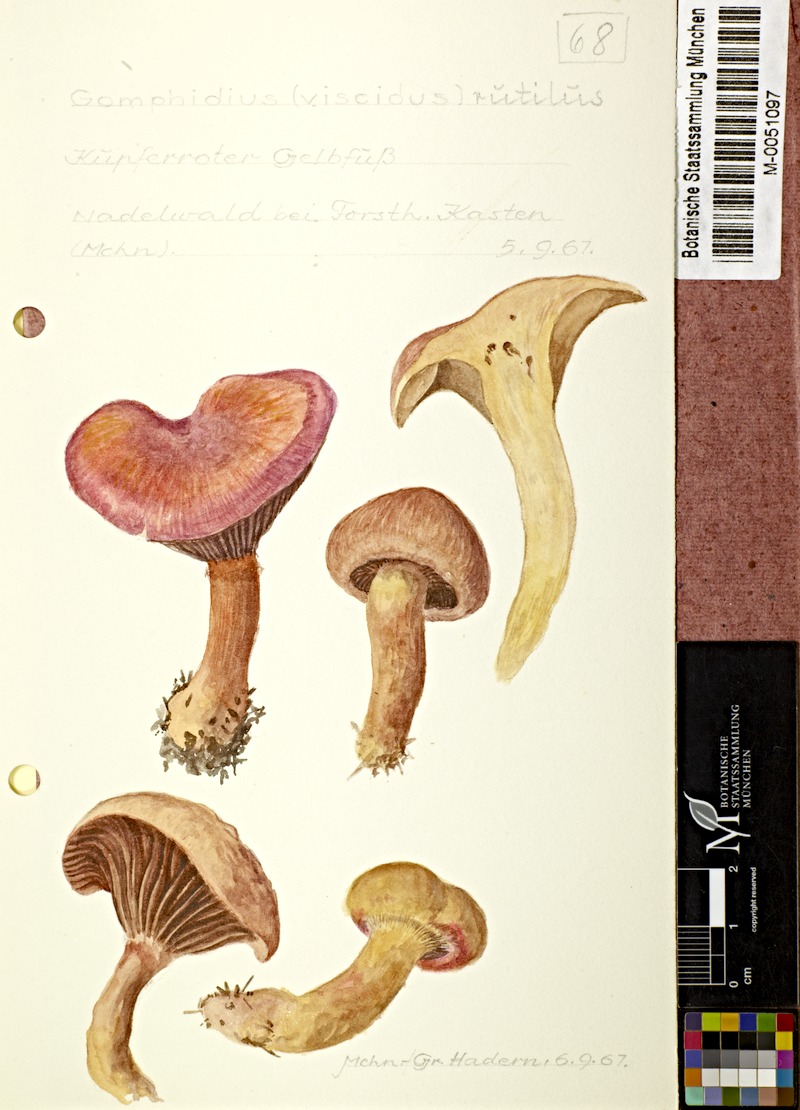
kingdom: Fungi
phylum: Basidiomycota
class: Agaricomycetes
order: Boletales
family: Gomphidiaceae
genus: Chroogomphus
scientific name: Chroogomphus rutilus
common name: Copper spike
